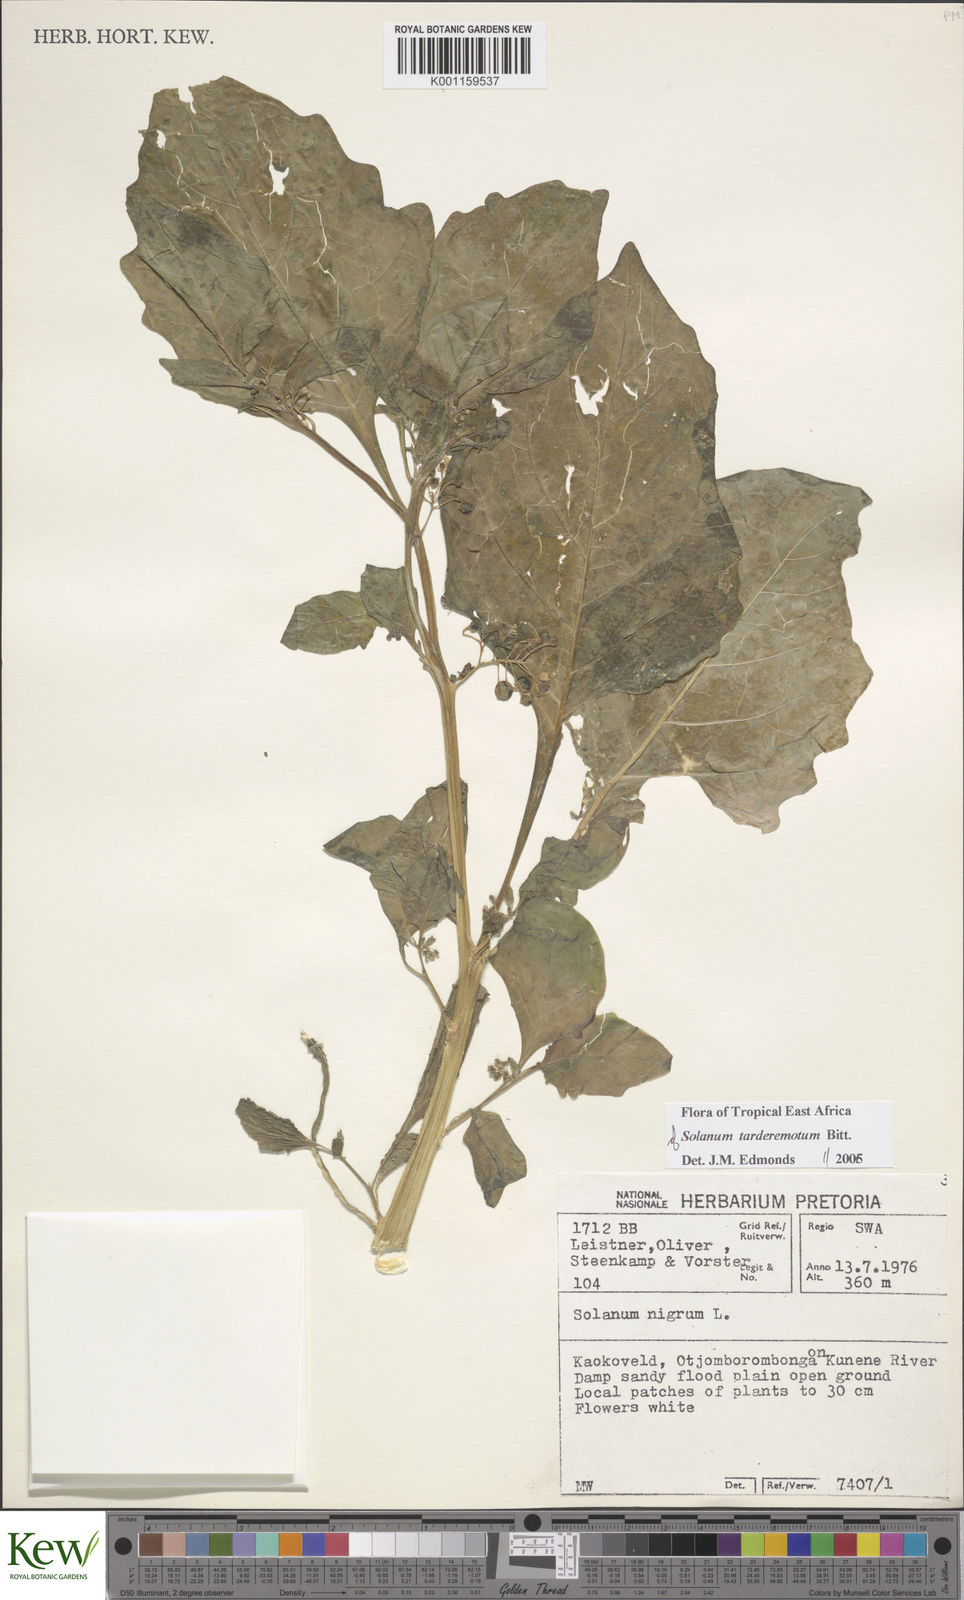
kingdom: Plantae
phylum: Tracheophyta
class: Magnoliopsida
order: Solanales
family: Solanaceae
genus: Solanum
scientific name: Solanum tarderemotum
